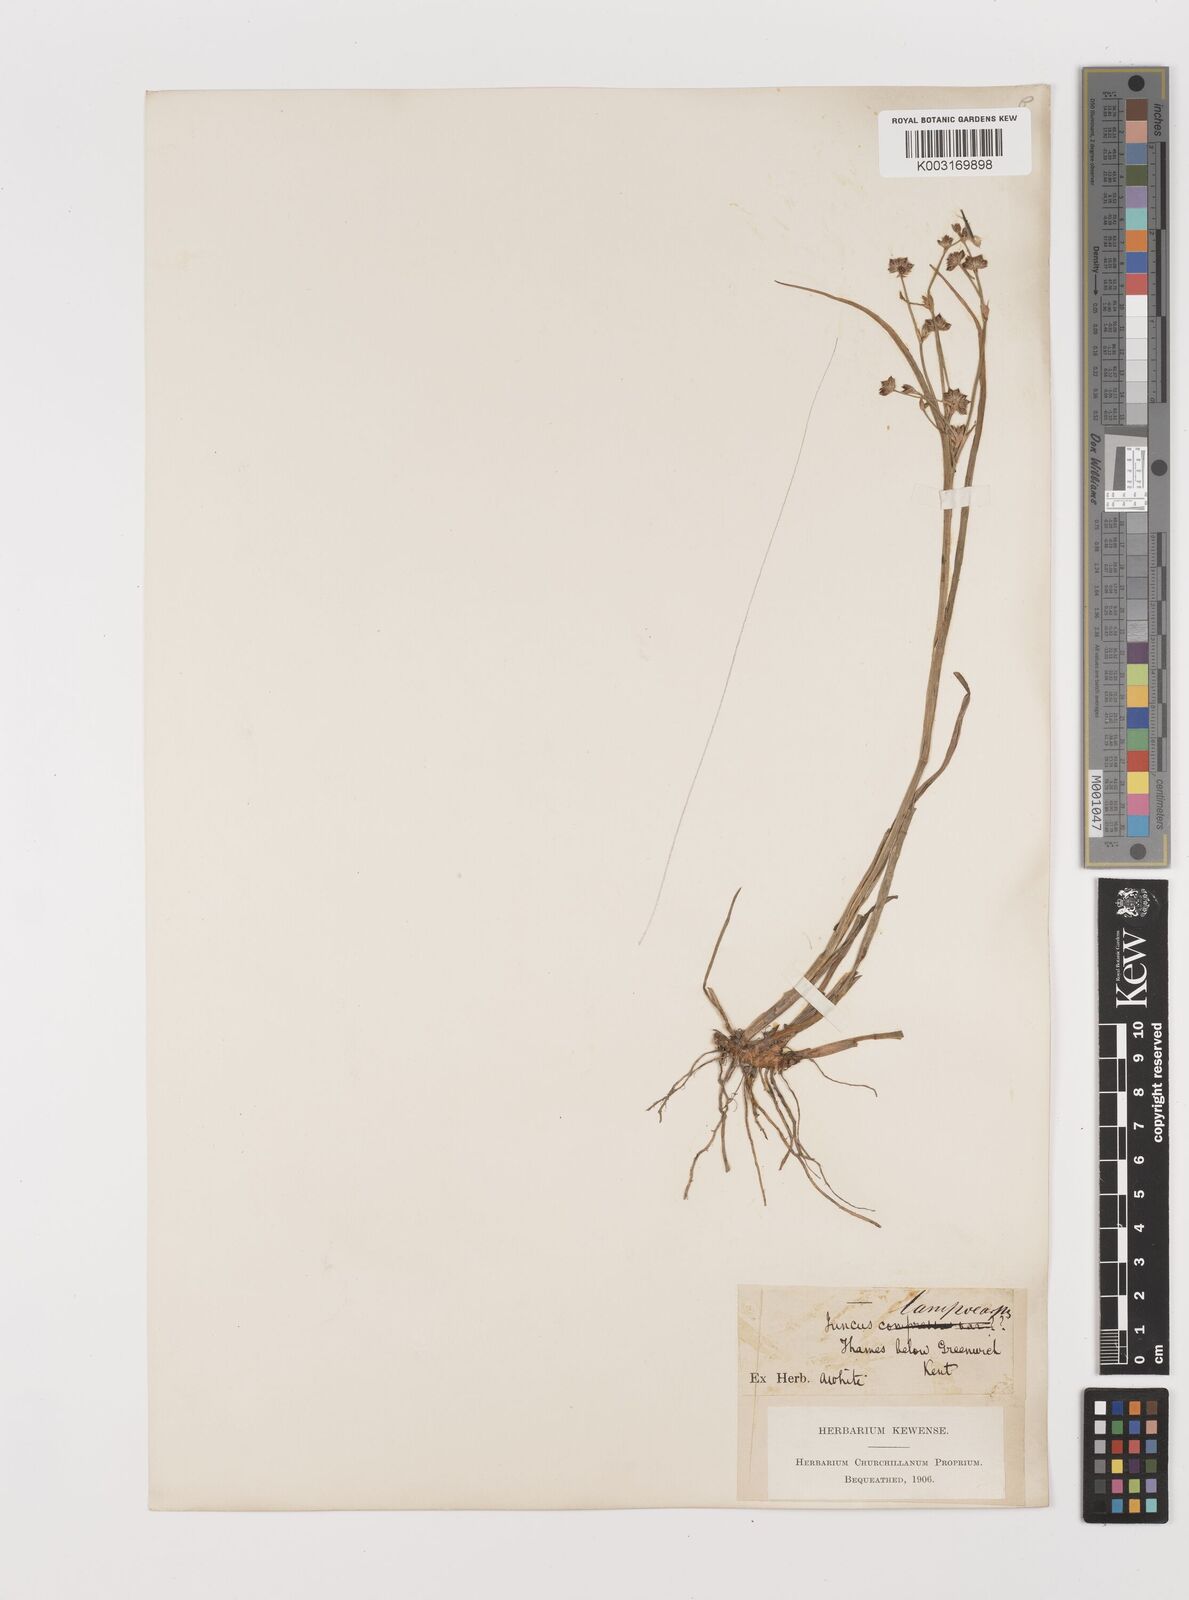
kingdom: Plantae
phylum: Tracheophyta
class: Liliopsida
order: Poales
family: Juncaceae
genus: Juncus
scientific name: Juncus articulatus
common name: Jointed rush
